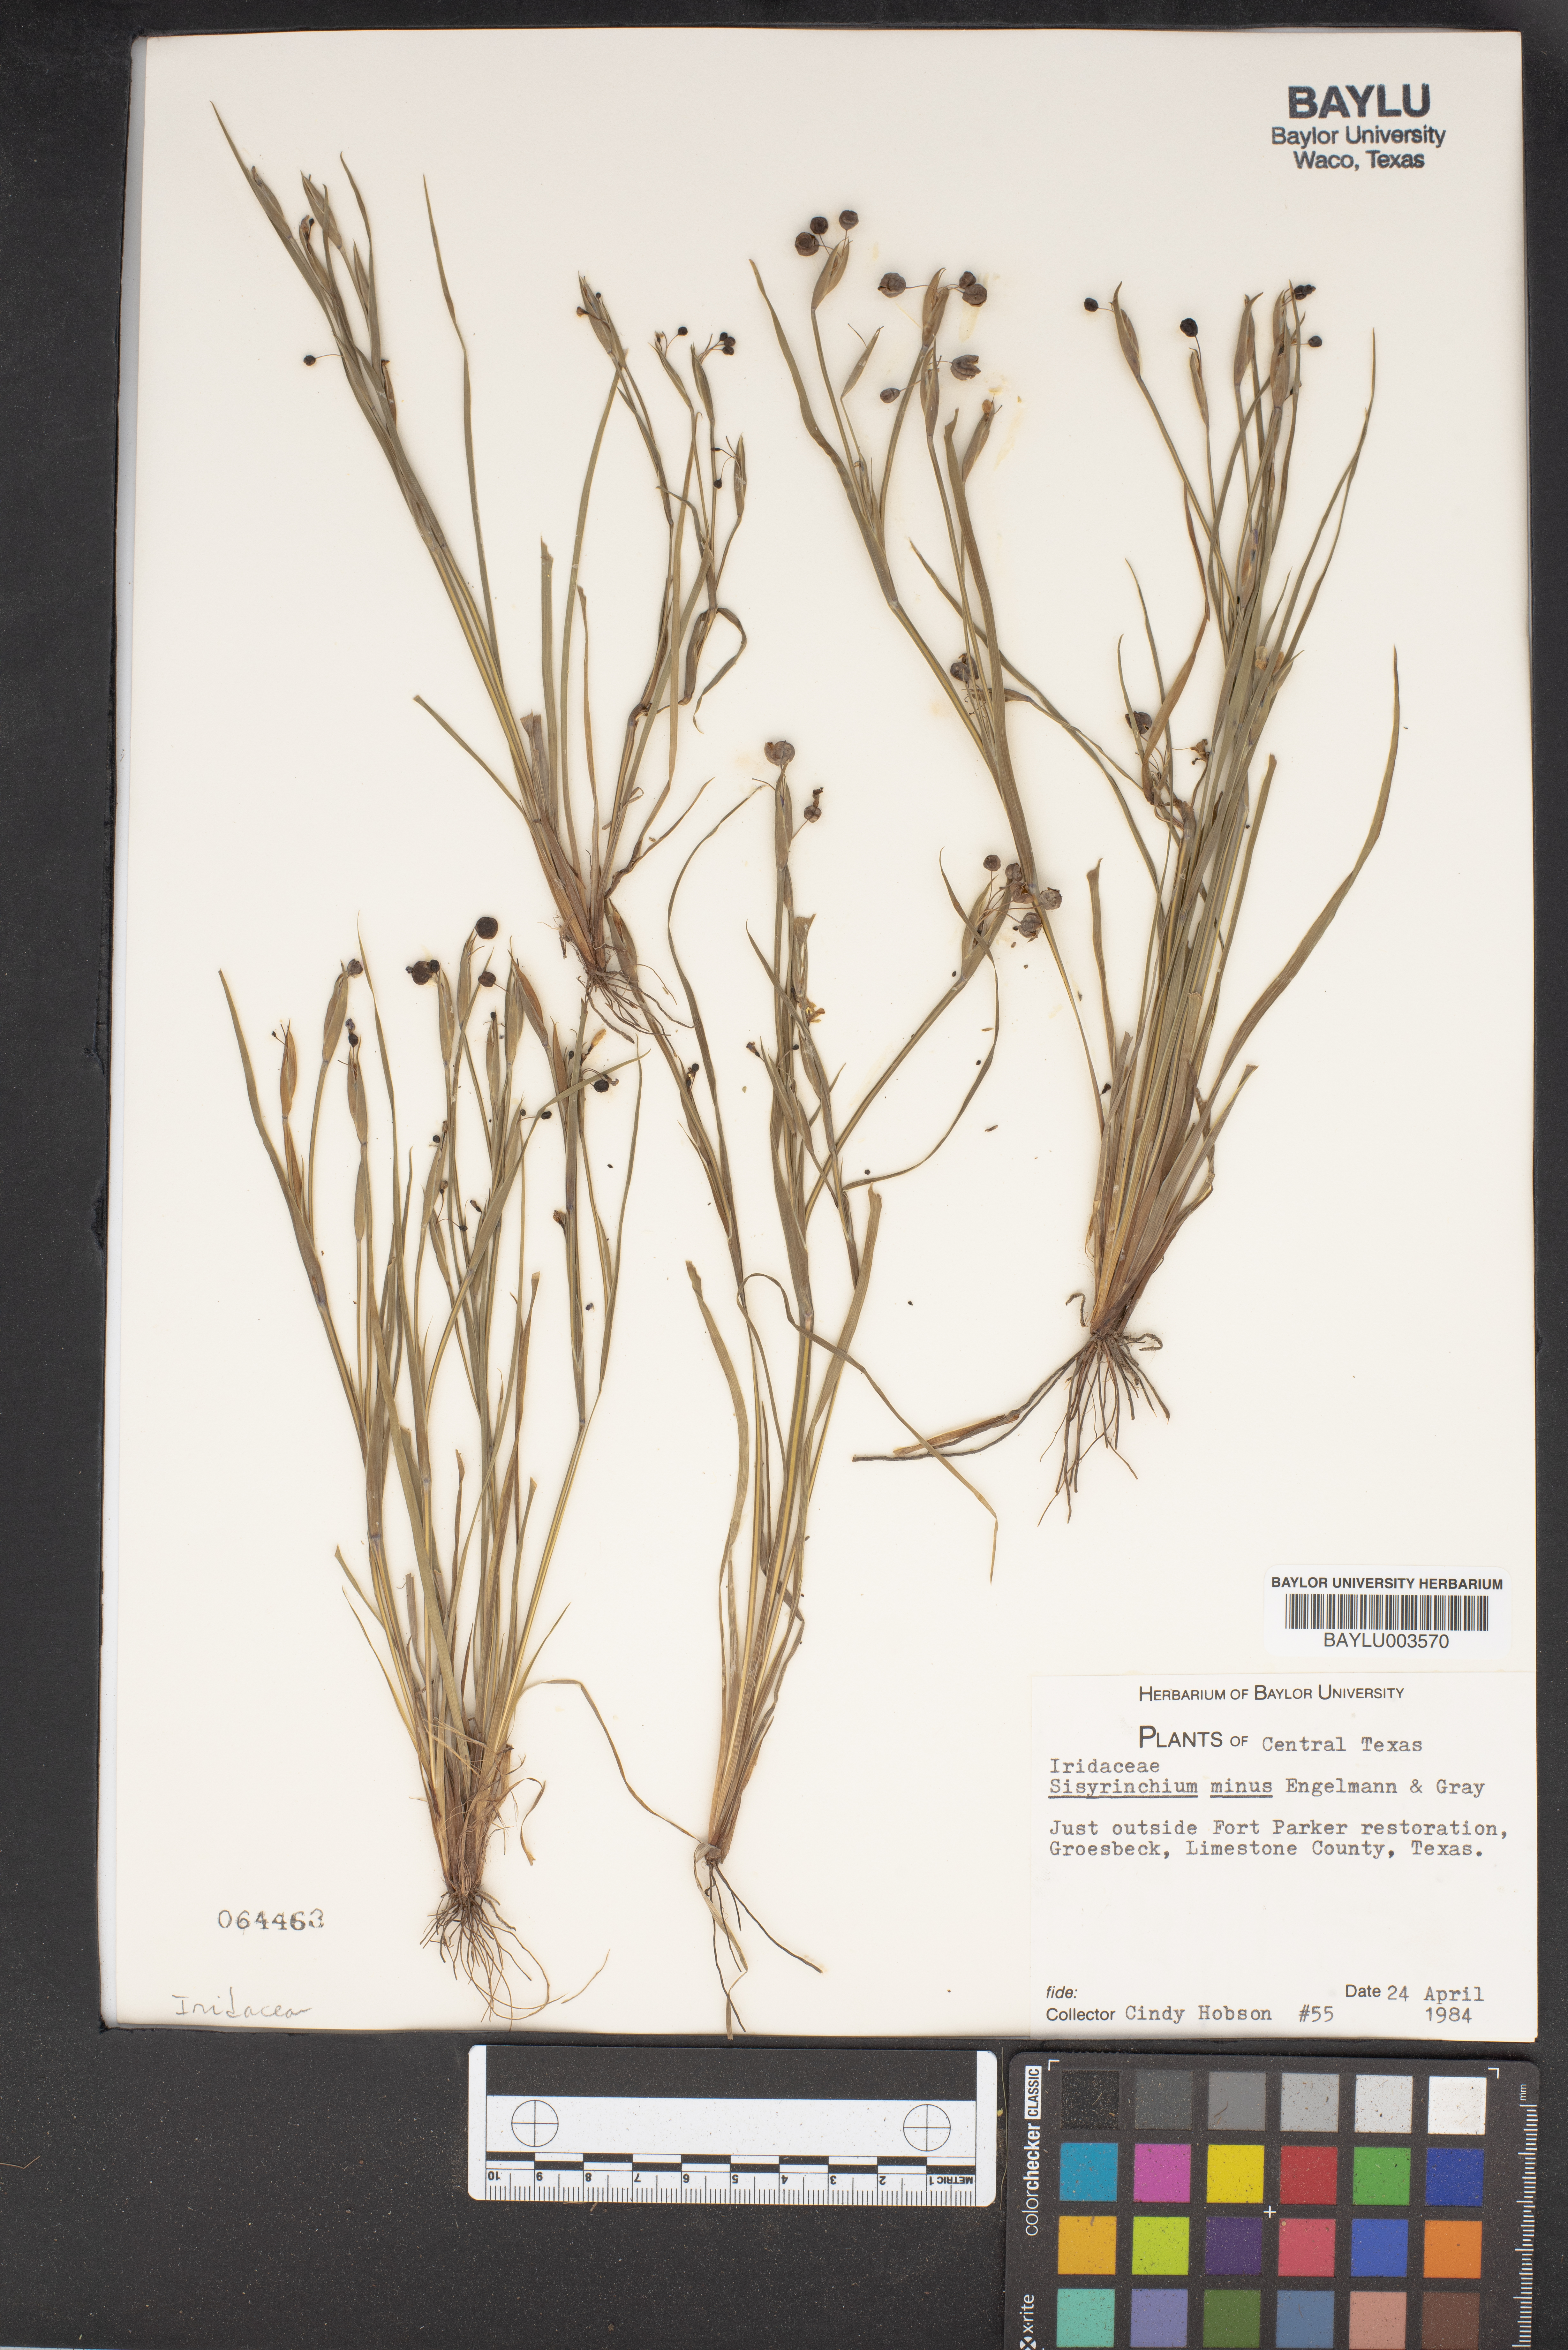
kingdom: Plantae
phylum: Tracheophyta
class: Liliopsida
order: Asparagales
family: Iridaceae
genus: Sisyrinchium
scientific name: Sisyrinchium minus
